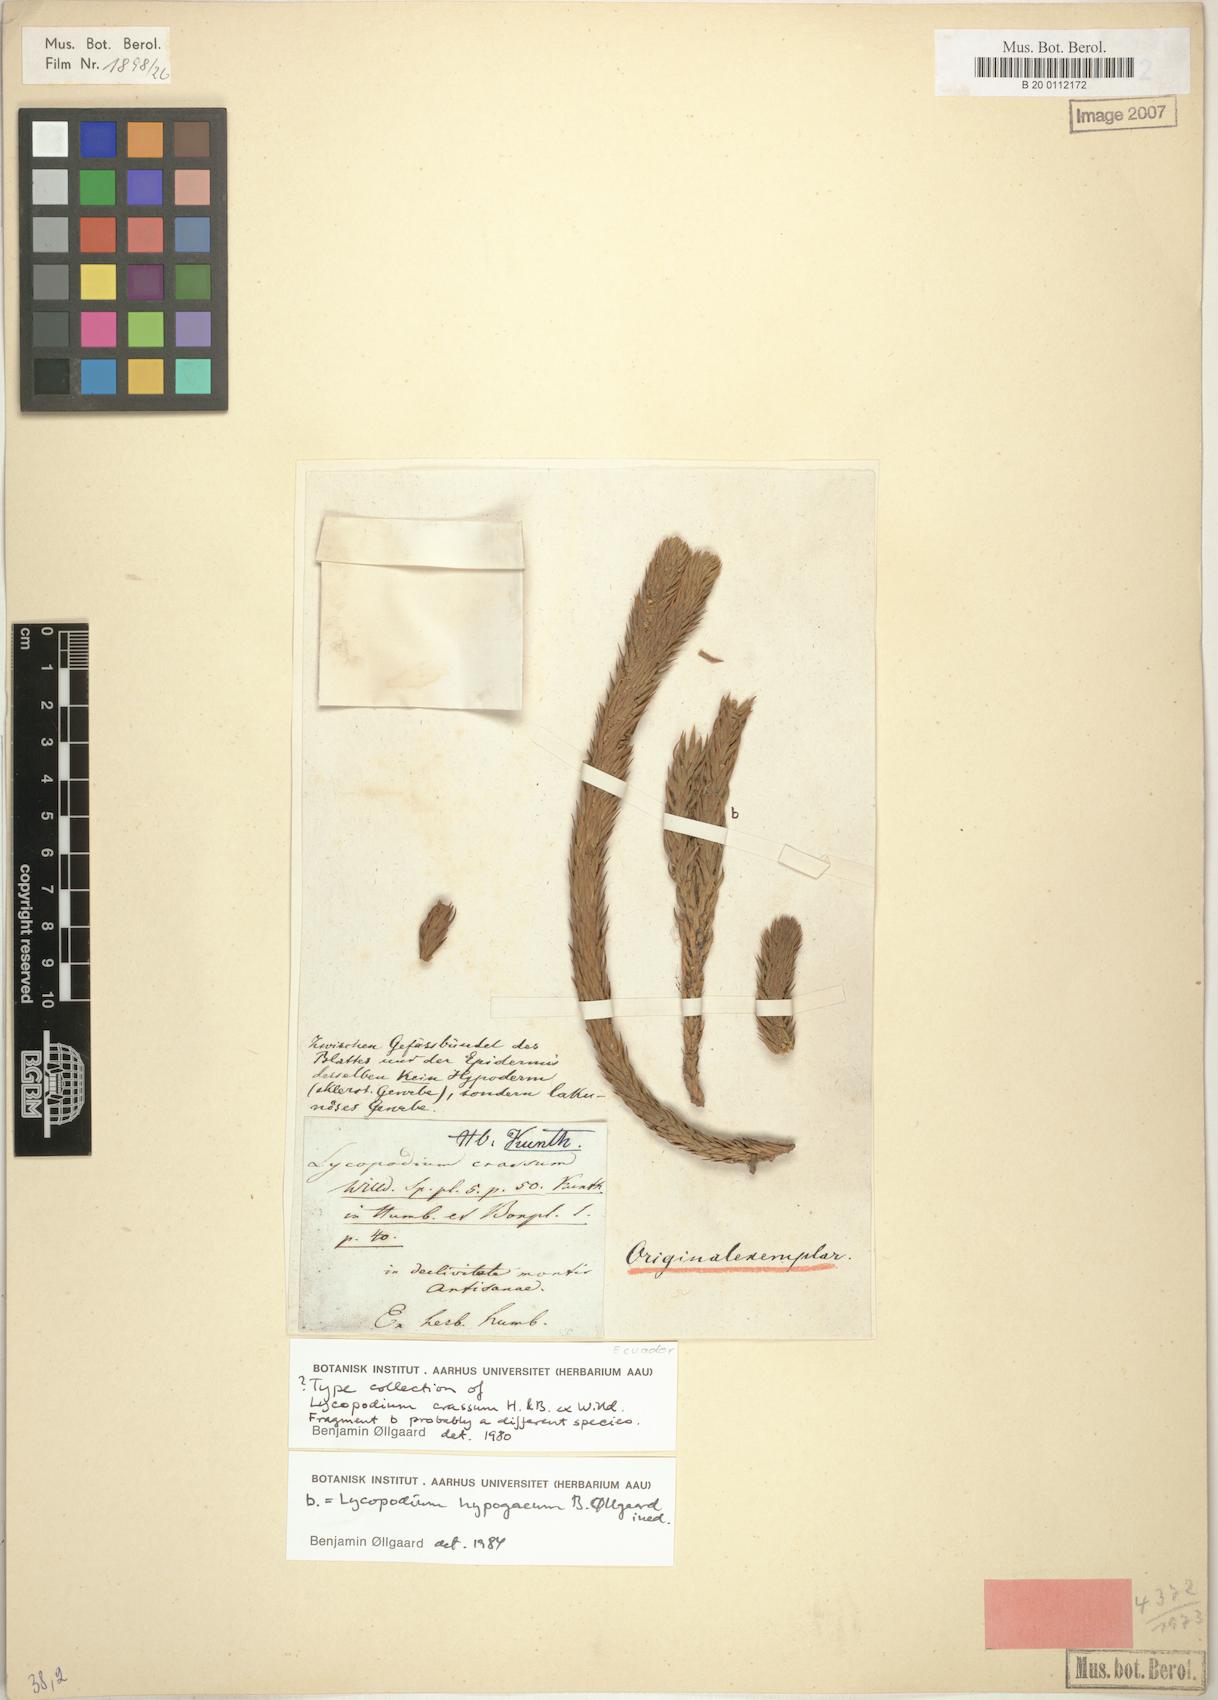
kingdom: Plantae
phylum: Tracheophyta
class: Lycopodiopsida
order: Lycopodiales
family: Lycopodiaceae
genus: Phlegmariurus
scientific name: Phlegmariurus hypogaeus
